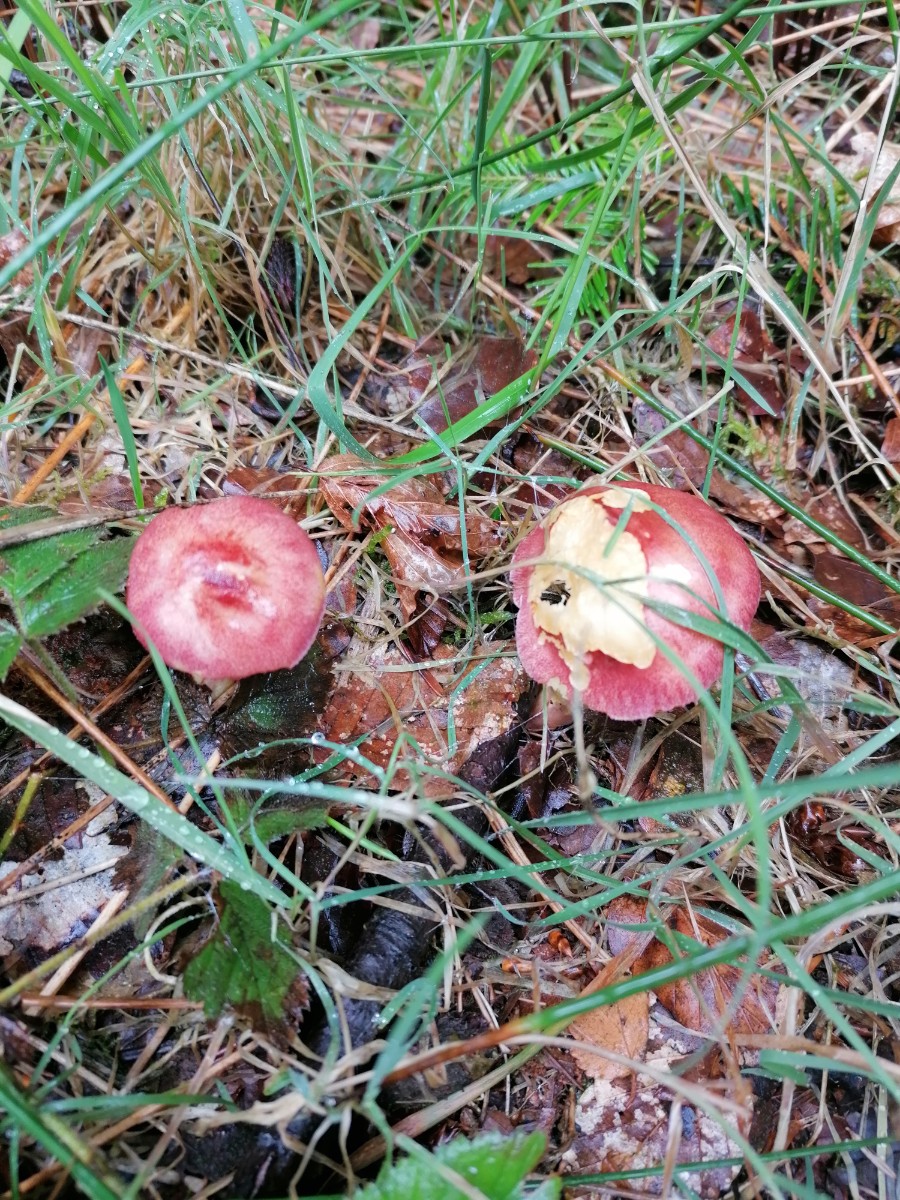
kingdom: Fungi
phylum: Basidiomycota
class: Agaricomycetes
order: Agaricales
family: Tricholomataceae
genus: Tricholomopsis
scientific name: Tricholomopsis rutilans
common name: purpur-væbnerhat
